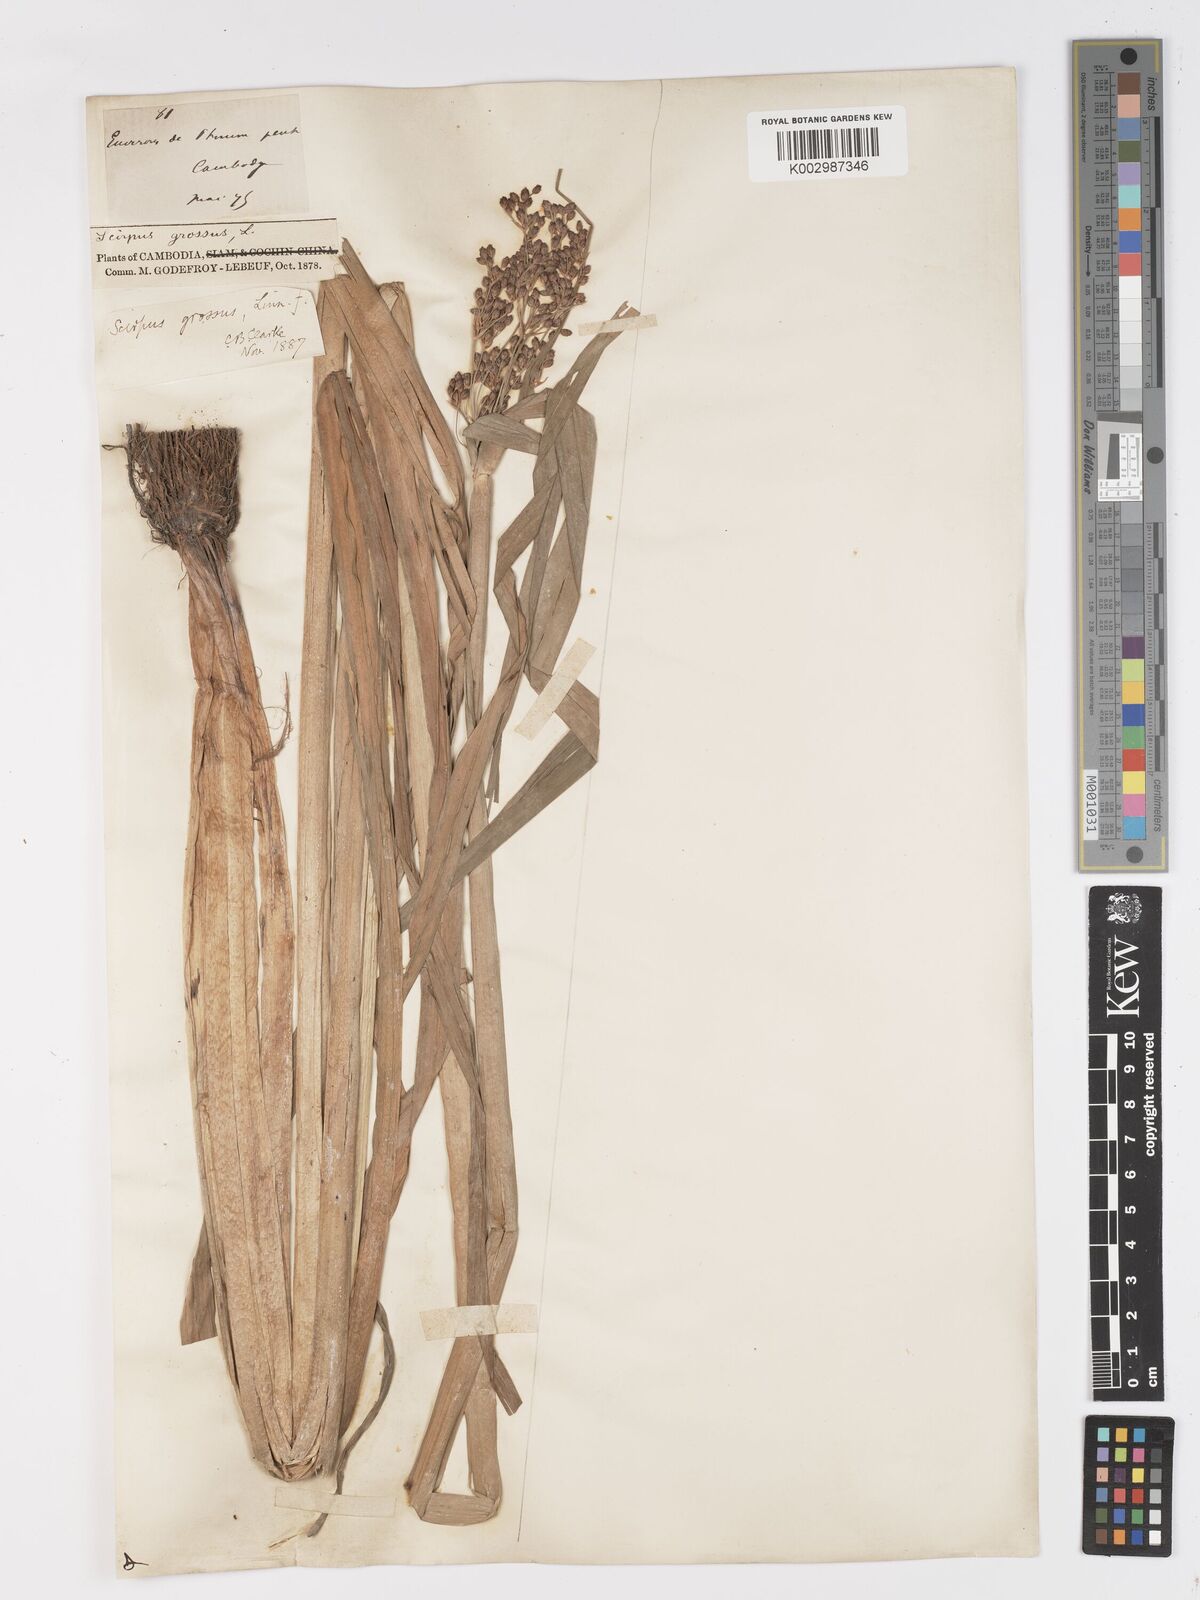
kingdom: Plantae
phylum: Tracheophyta
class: Liliopsida
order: Poales
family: Cyperaceae
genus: Actinoscirpus
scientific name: Actinoscirpus grossus
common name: Giant bur rush
